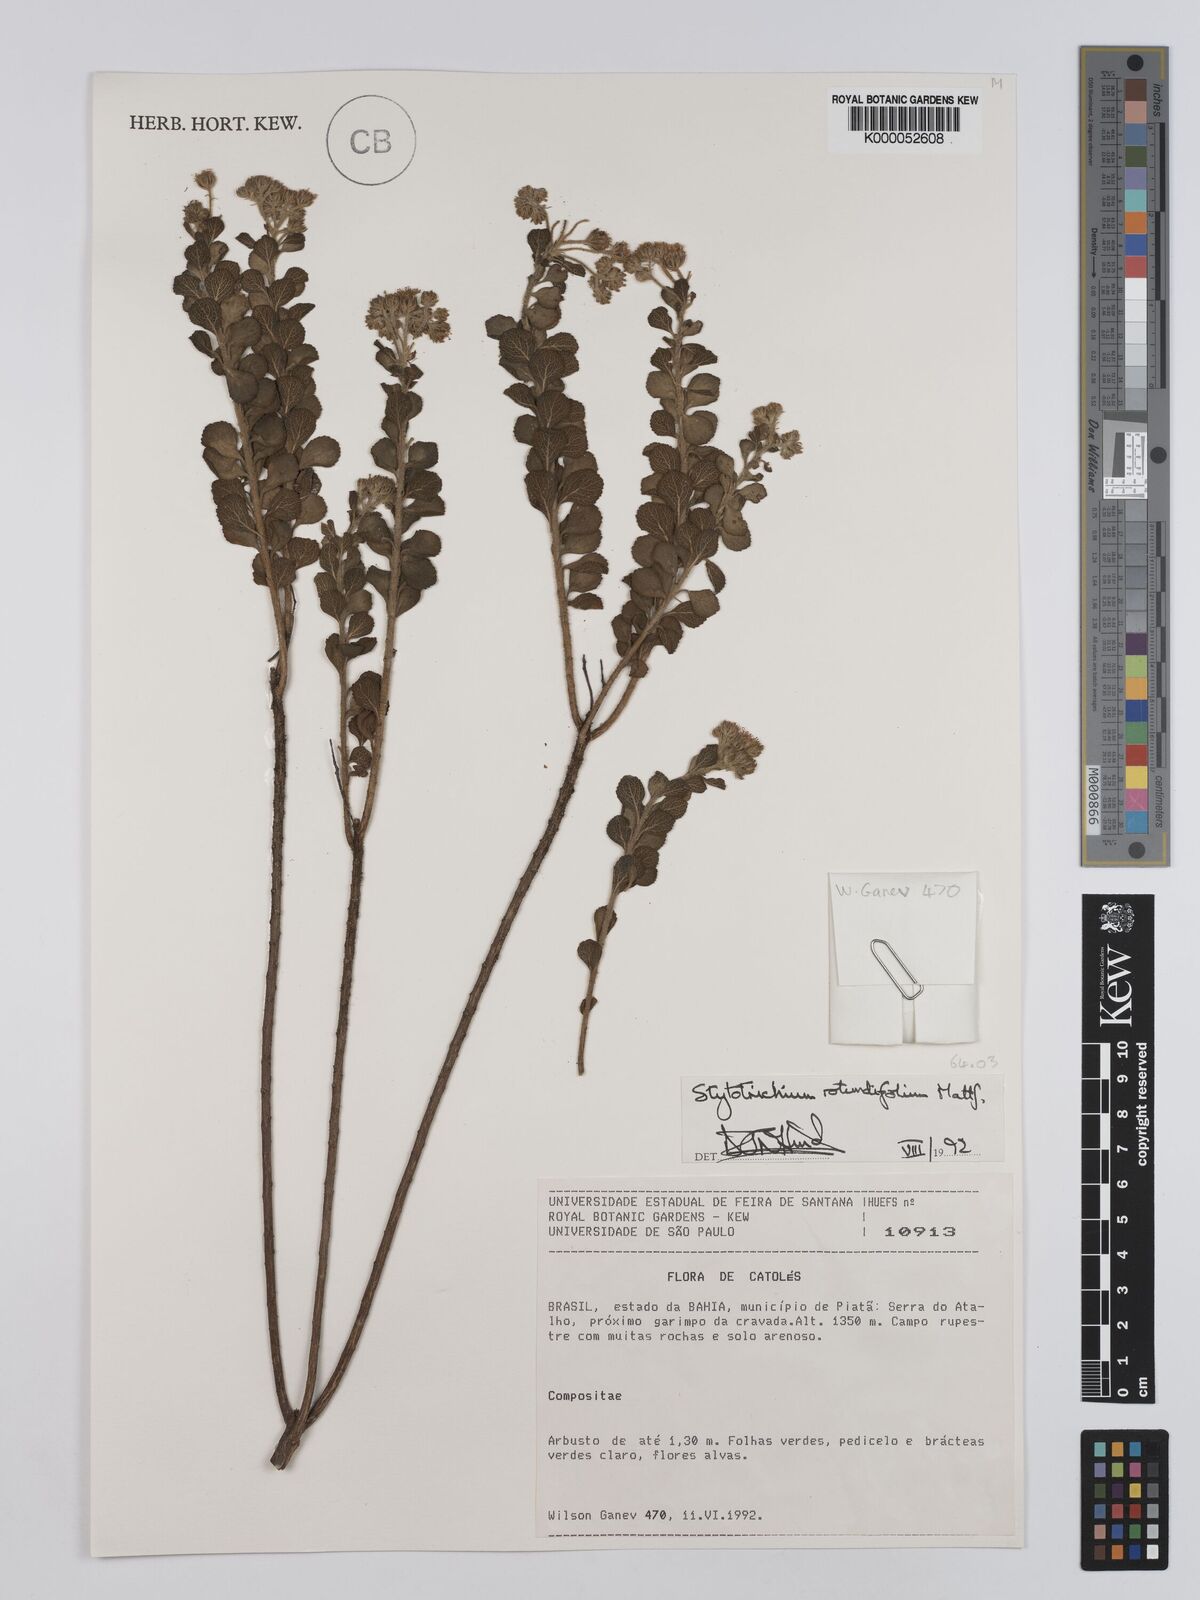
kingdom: Plantae
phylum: Tracheophyta
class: Magnoliopsida
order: Asterales
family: Asteraceae
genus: Stylotrichium
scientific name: Stylotrichium rotundifolium
